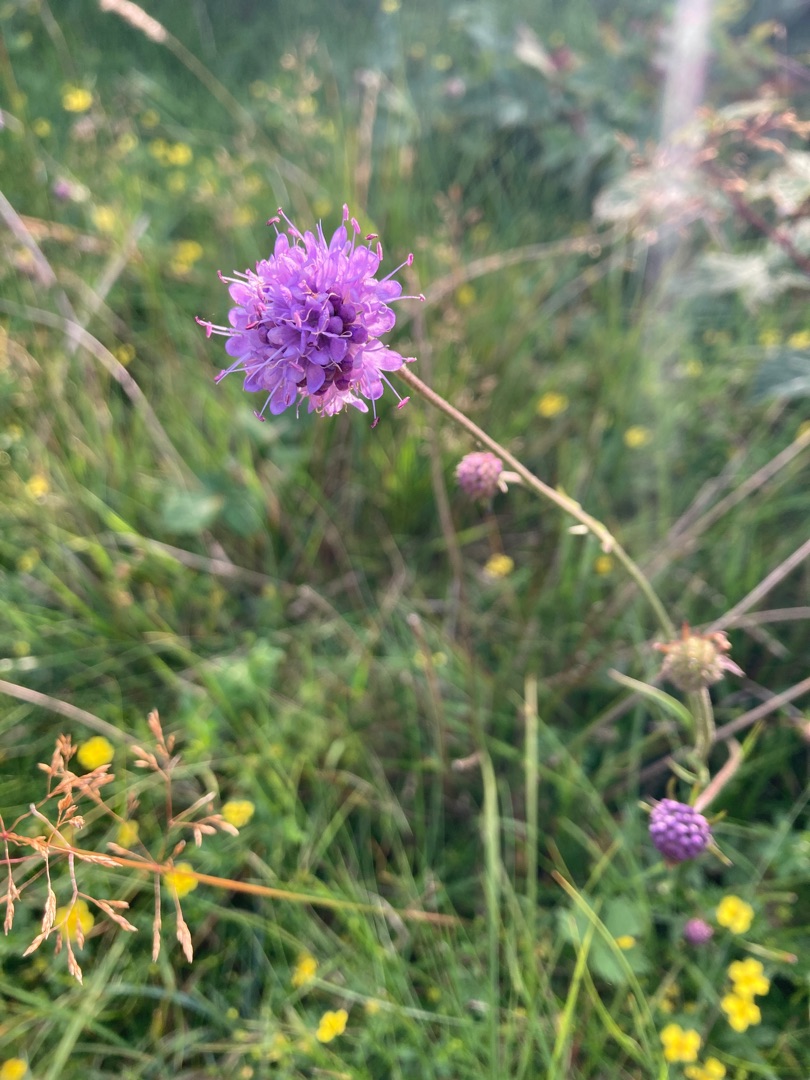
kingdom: Plantae
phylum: Tracheophyta
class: Magnoliopsida
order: Dipsacales
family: Caprifoliaceae
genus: Succisa
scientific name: Succisa pratensis
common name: Djævelsbid
